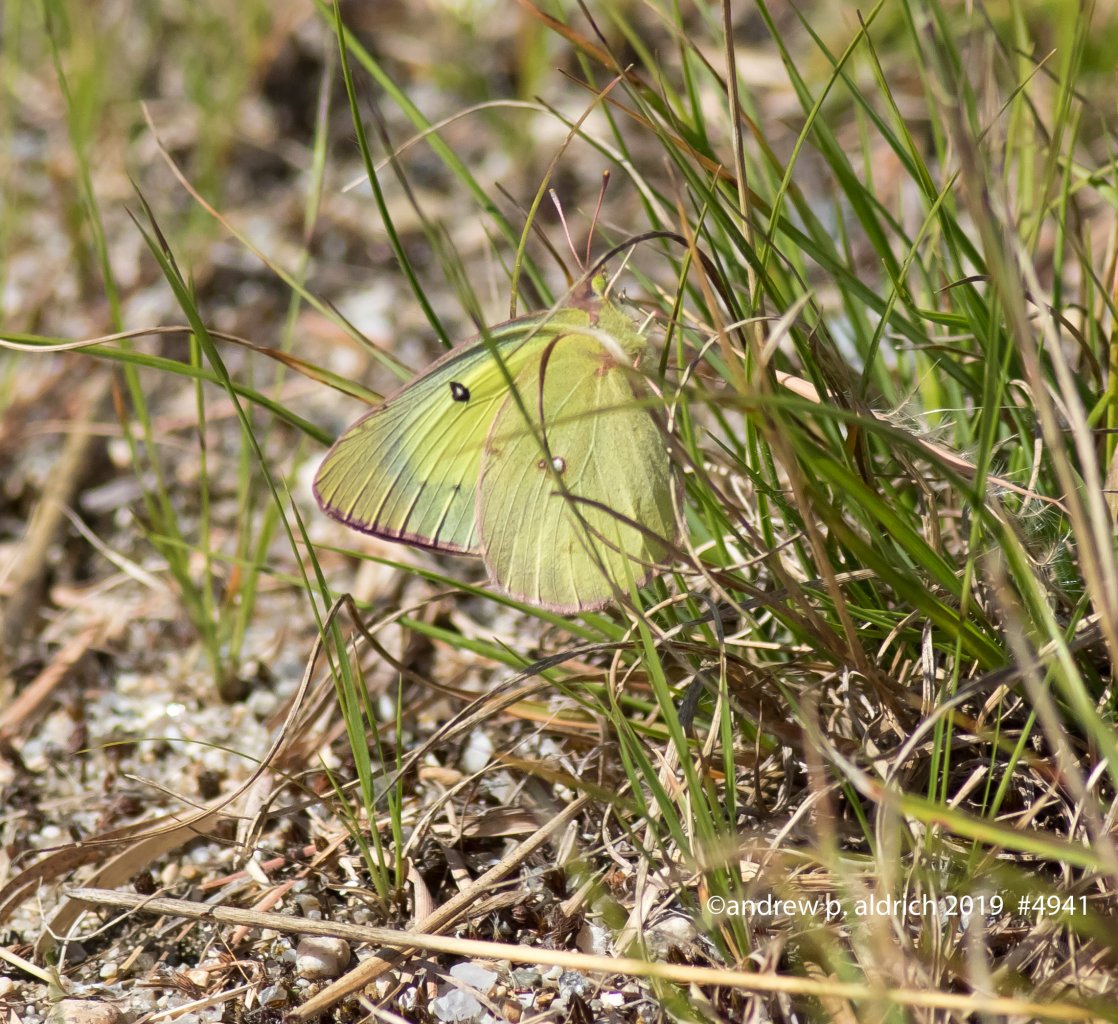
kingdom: Animalia
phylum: Arthropoda
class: Insecta
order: Lepidoptera
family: Pieridae
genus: Colias
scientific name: Colias philodice
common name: Clouded Sulphur
